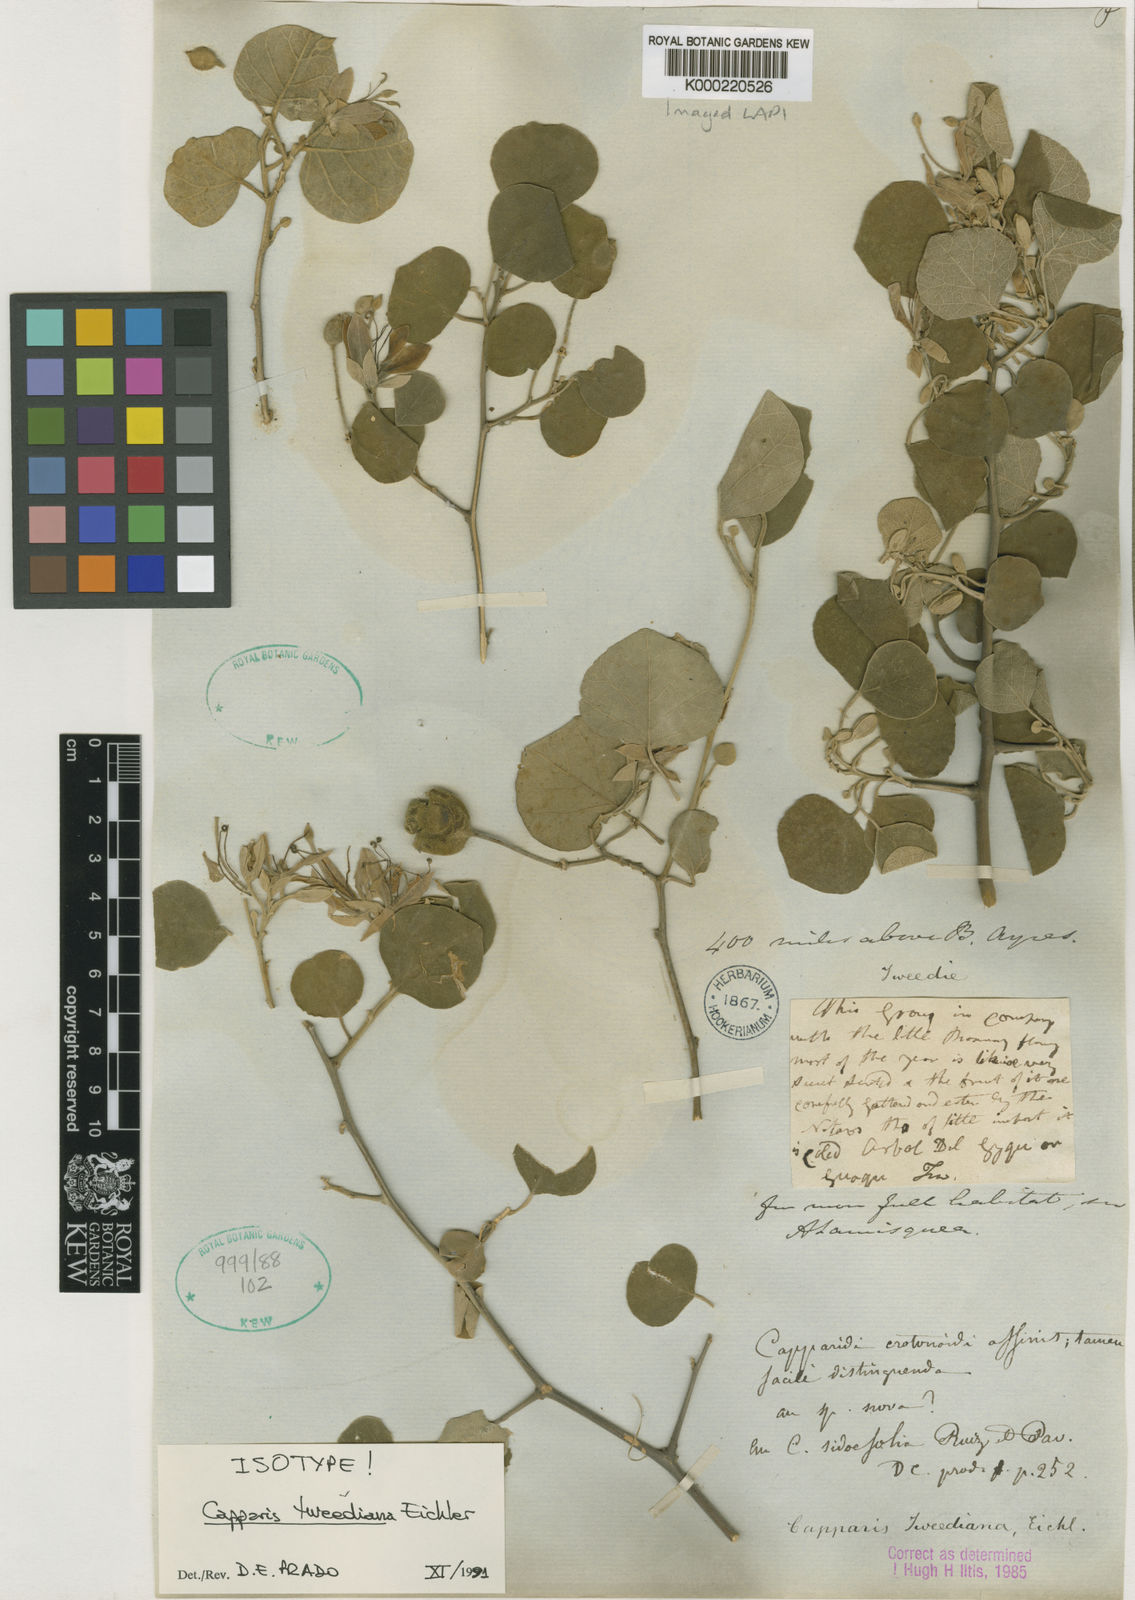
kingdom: Plantae
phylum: Tracheophyta
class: Magnoliopsida
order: Brassicales
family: Capparaceae
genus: Capparis
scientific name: Capparis
